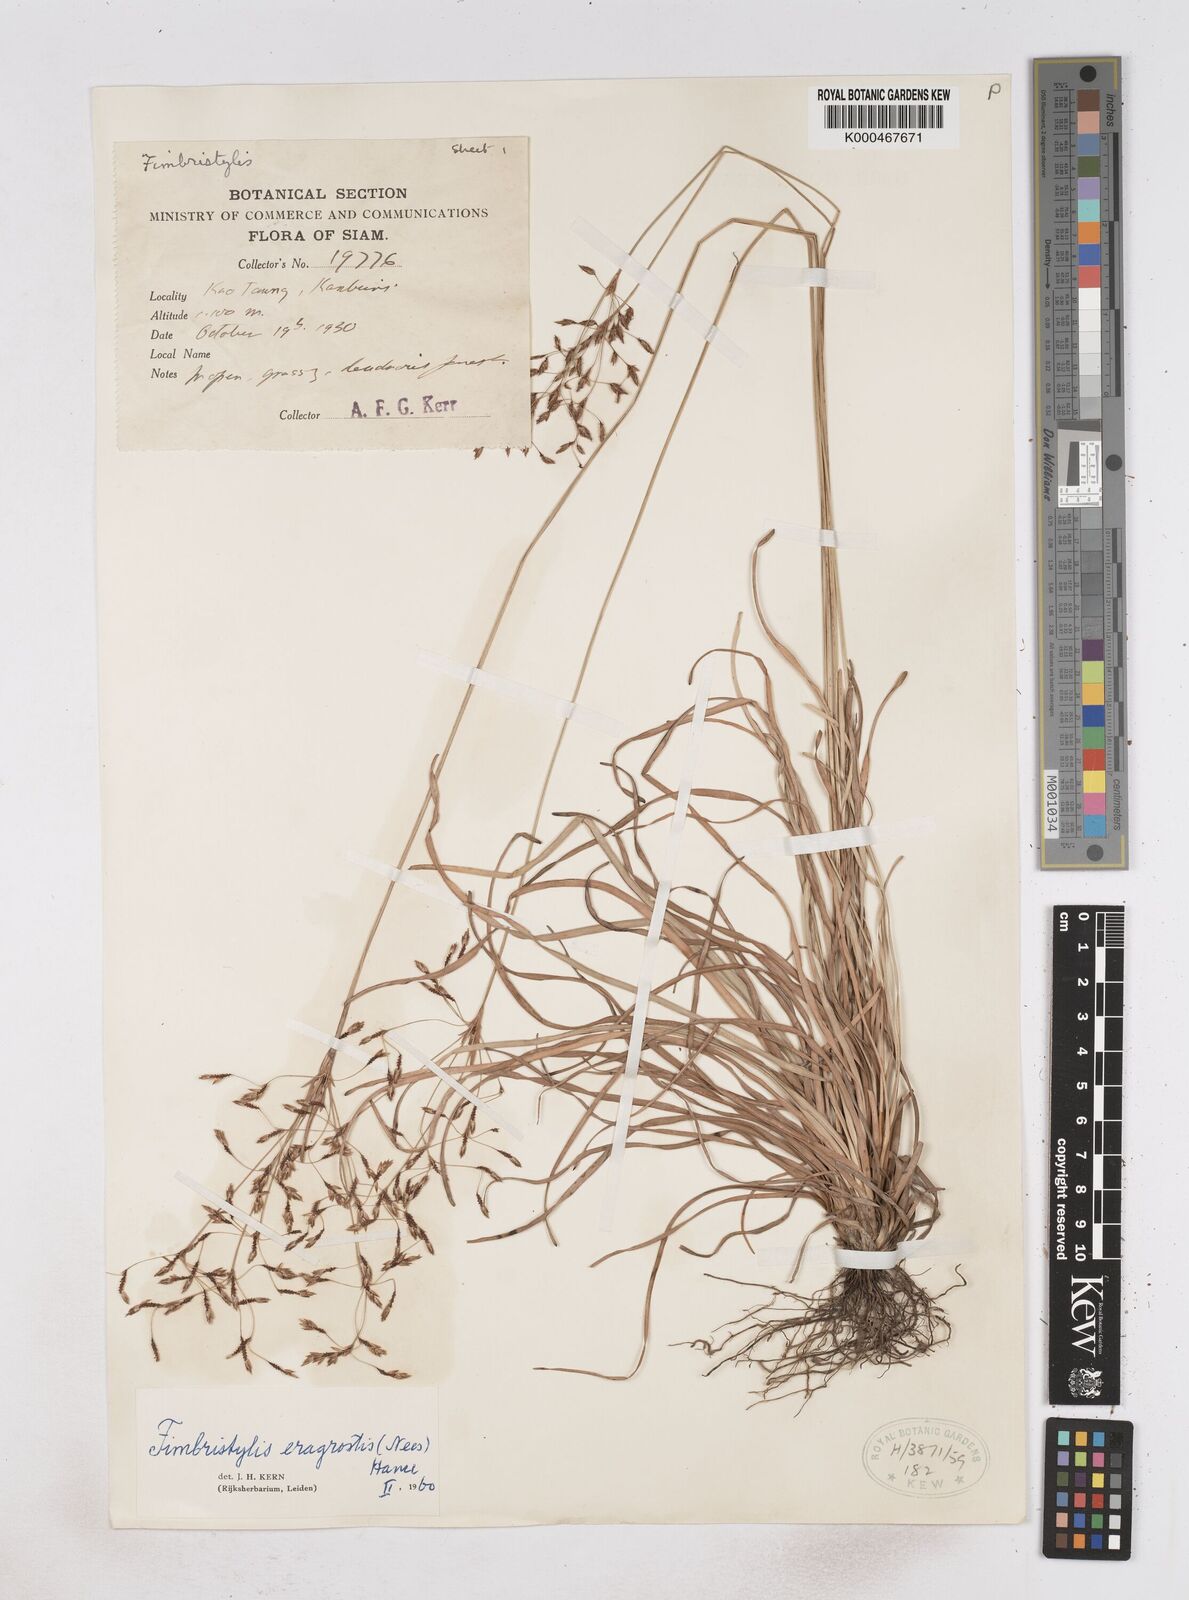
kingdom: Plantae
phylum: Tracheophyta
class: Liliopsida
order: Poales
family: Cyperaceae
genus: Fimbristylis
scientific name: Fimbristylis eragrostis
